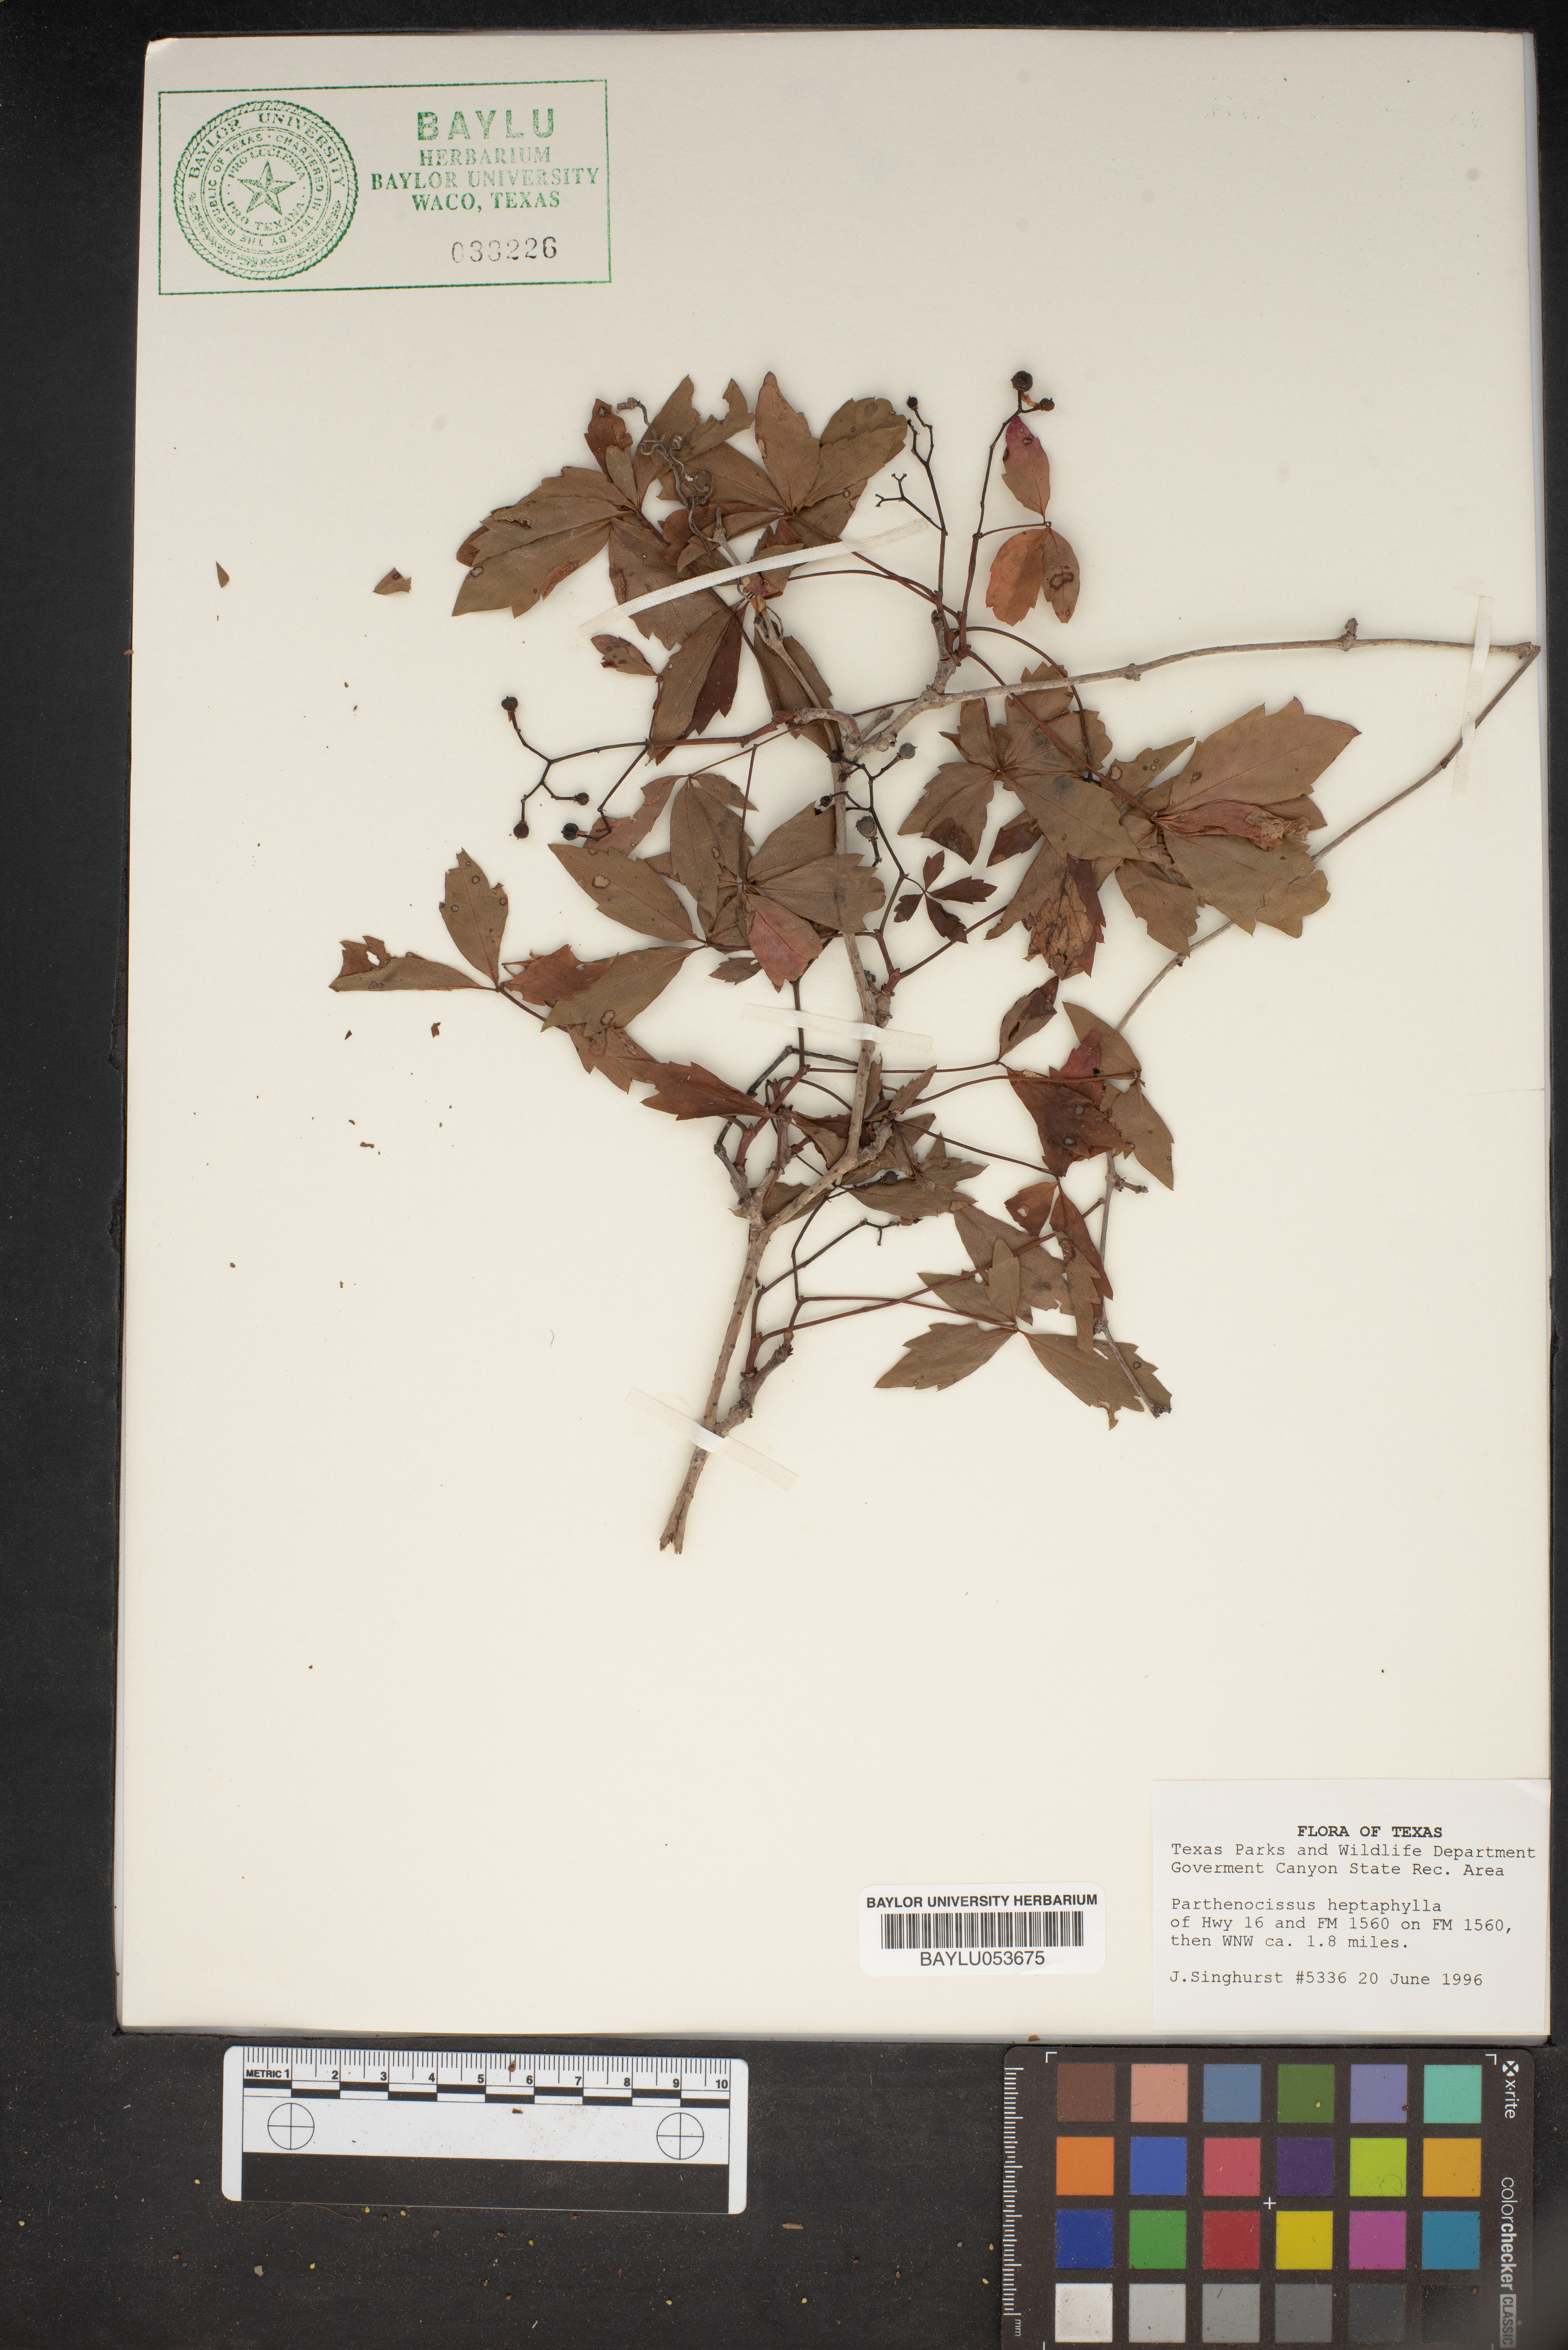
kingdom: Plantae
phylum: Tracheophyta
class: Magnoliopsida
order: Vitales
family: Vitaceae
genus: Parthenocissus
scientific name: Parthenocissus heptaphylla
